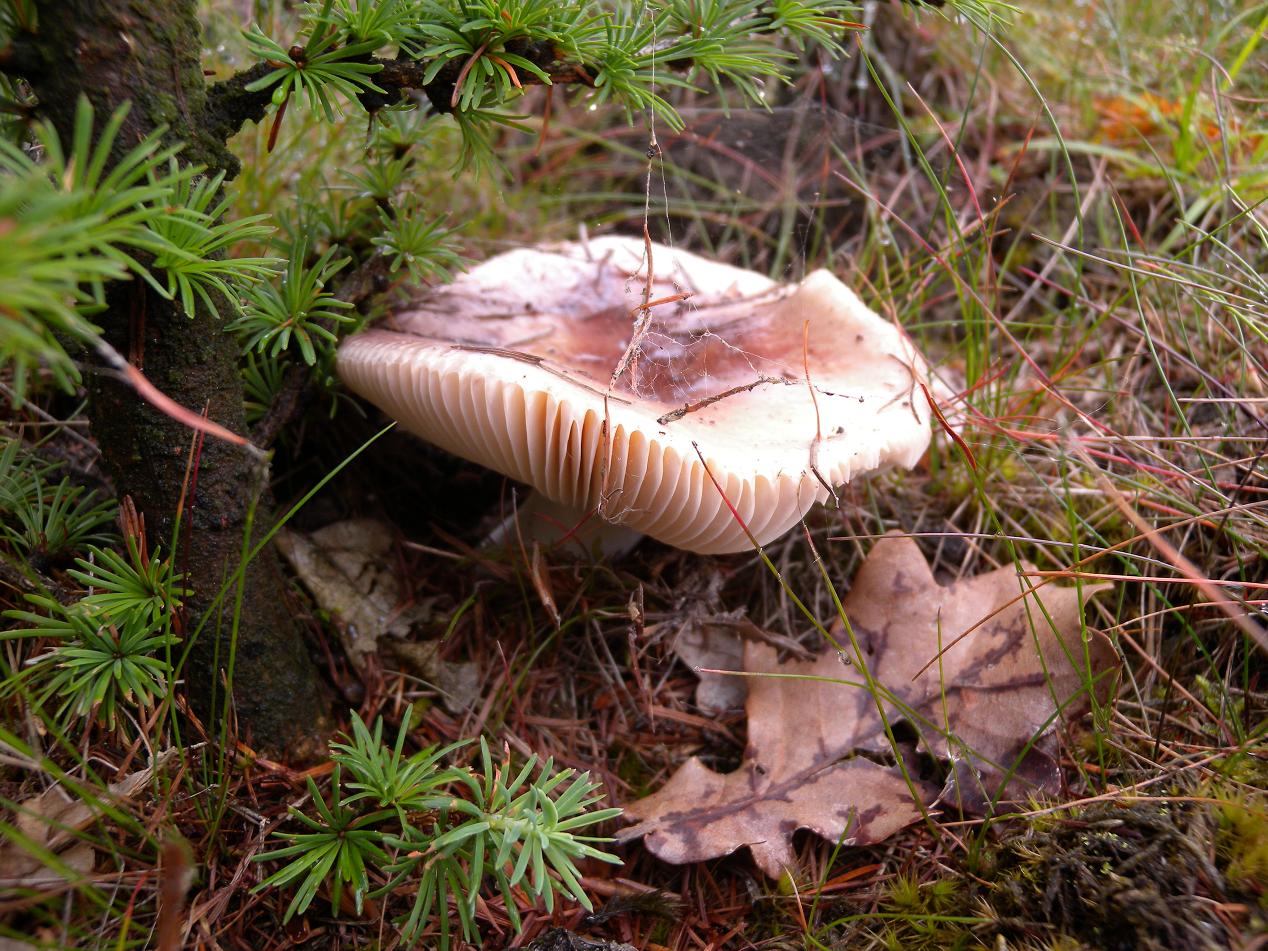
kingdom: Fungi
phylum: Basidiomycota
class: Agaricomycetes
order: Russulales
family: Russulaceae
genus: Russula
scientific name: Russula vesca
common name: spiselig skørhat
